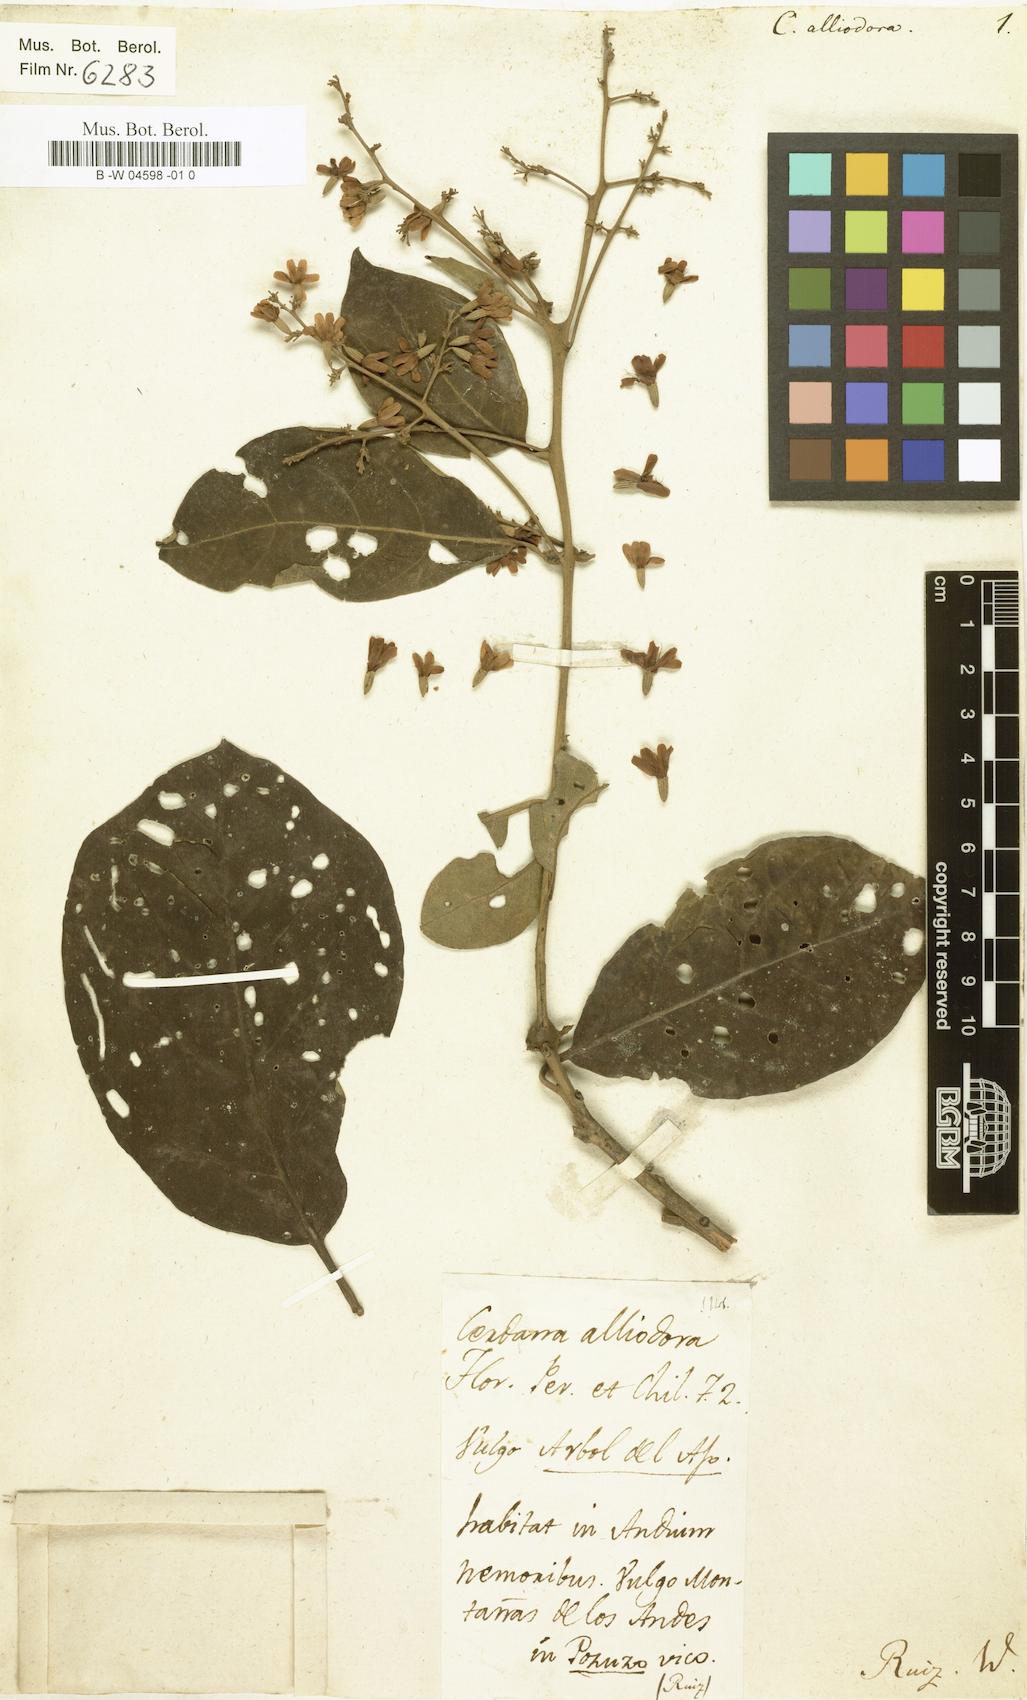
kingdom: Plantae
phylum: Tracheophyta
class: Magnoliopsida
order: Boraginales
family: Cordiaceae
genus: Cordia
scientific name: Cordia alliodora
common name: Spanish elm
